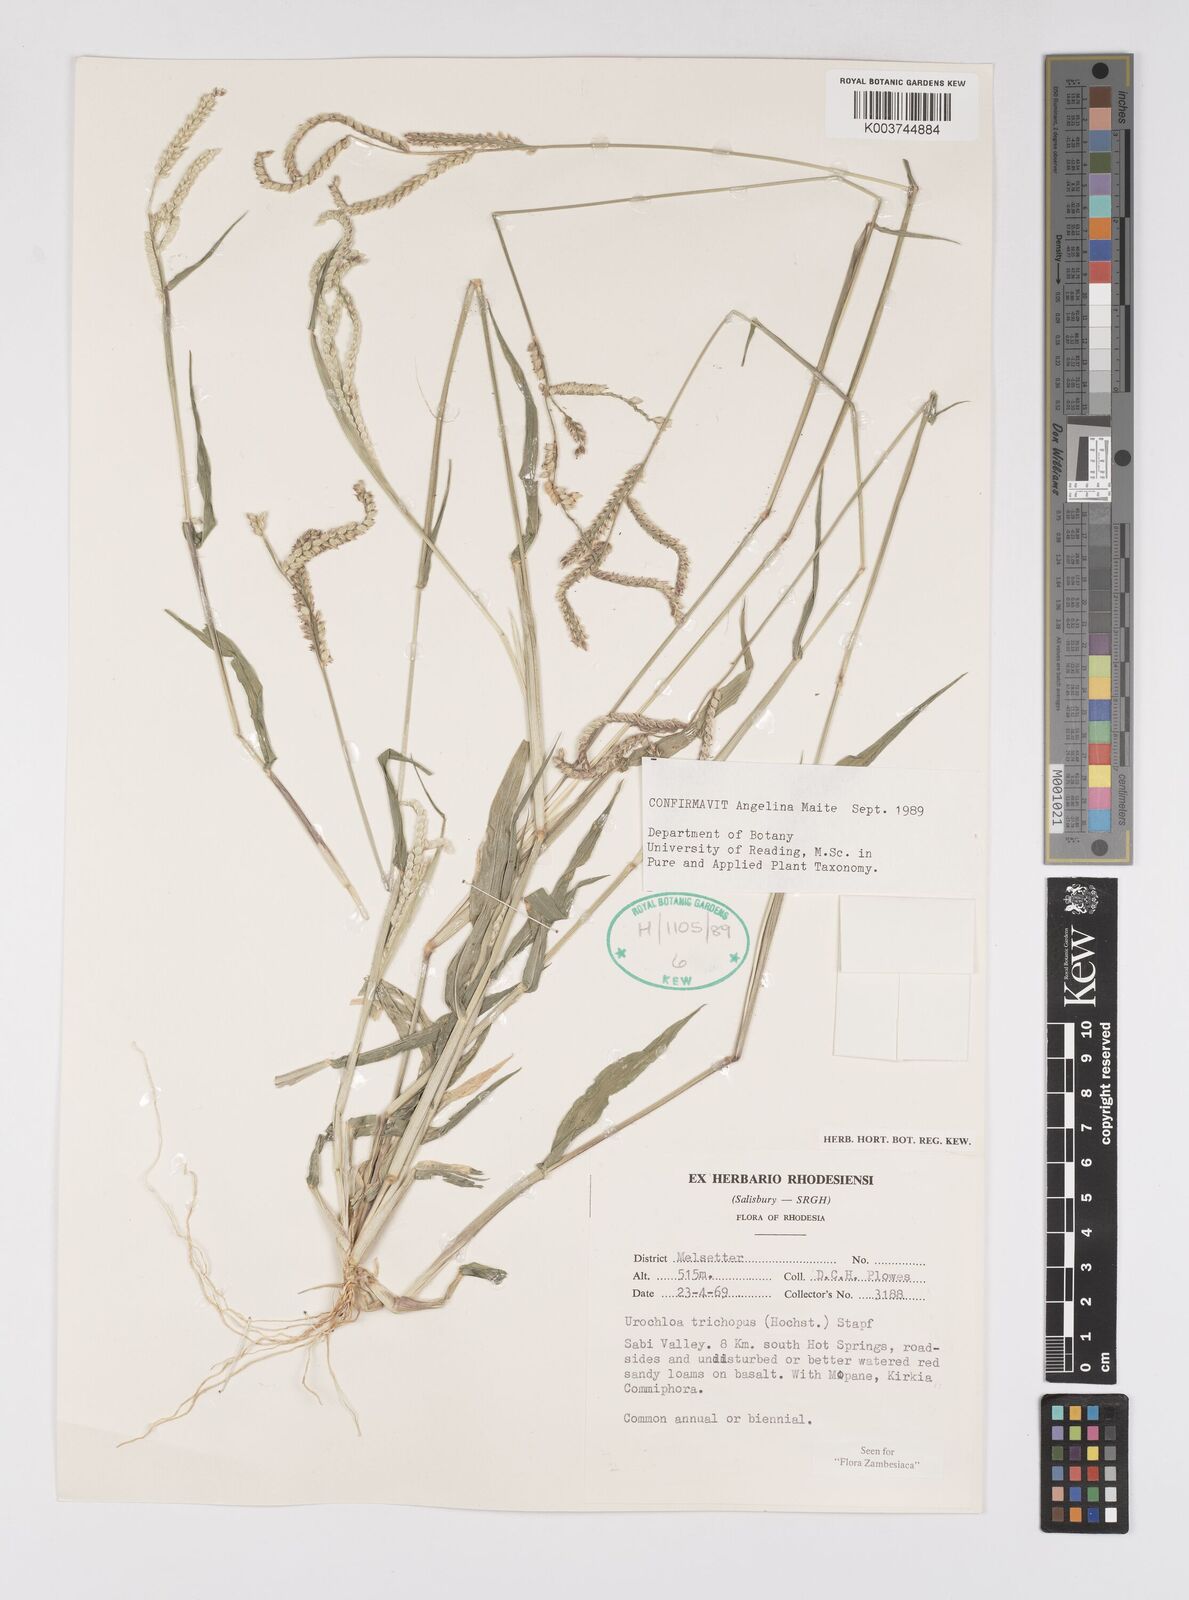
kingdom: Plantae
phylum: Tracheophyta
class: Liliopsida
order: Poales
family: Poaceae
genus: Urochloa
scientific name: Urochloa trichopus
